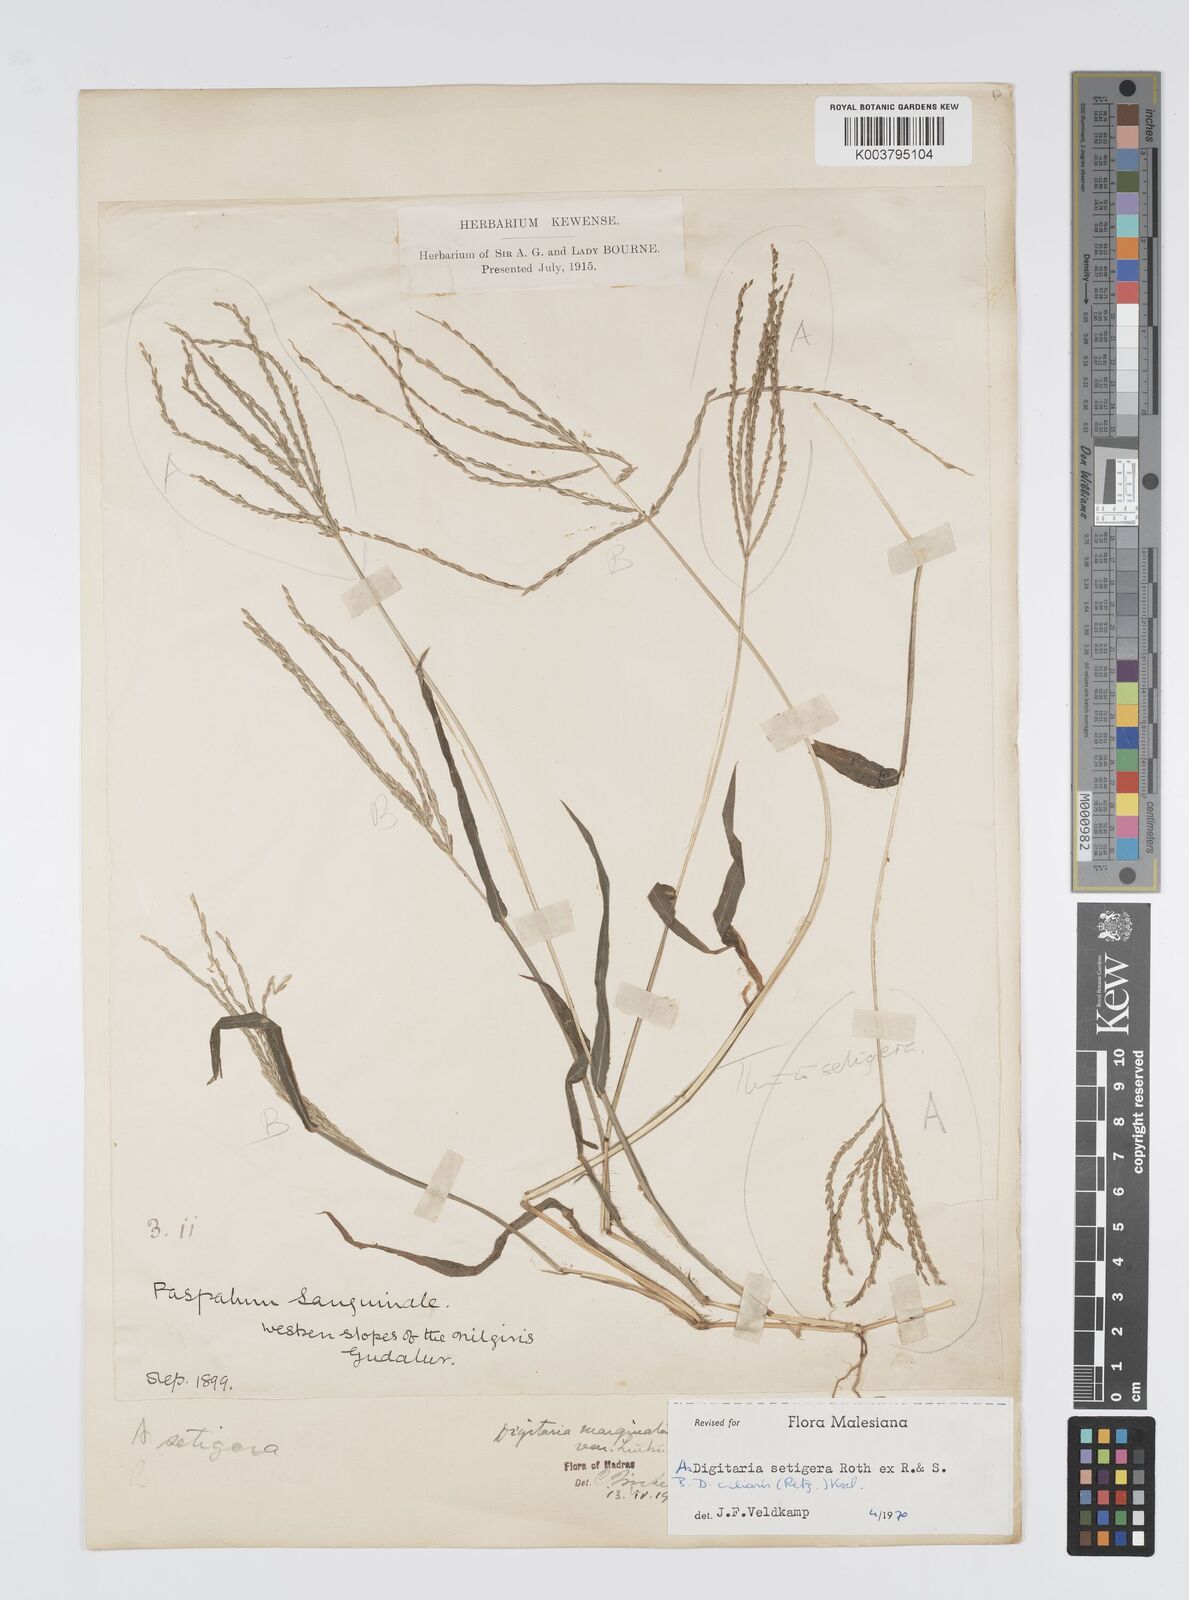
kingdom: Plantae
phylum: Tracheophyta
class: Liliopsida
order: Poales
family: Poaceae
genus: Digitaria
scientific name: Digitaria setigera
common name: East indian crabgrass
